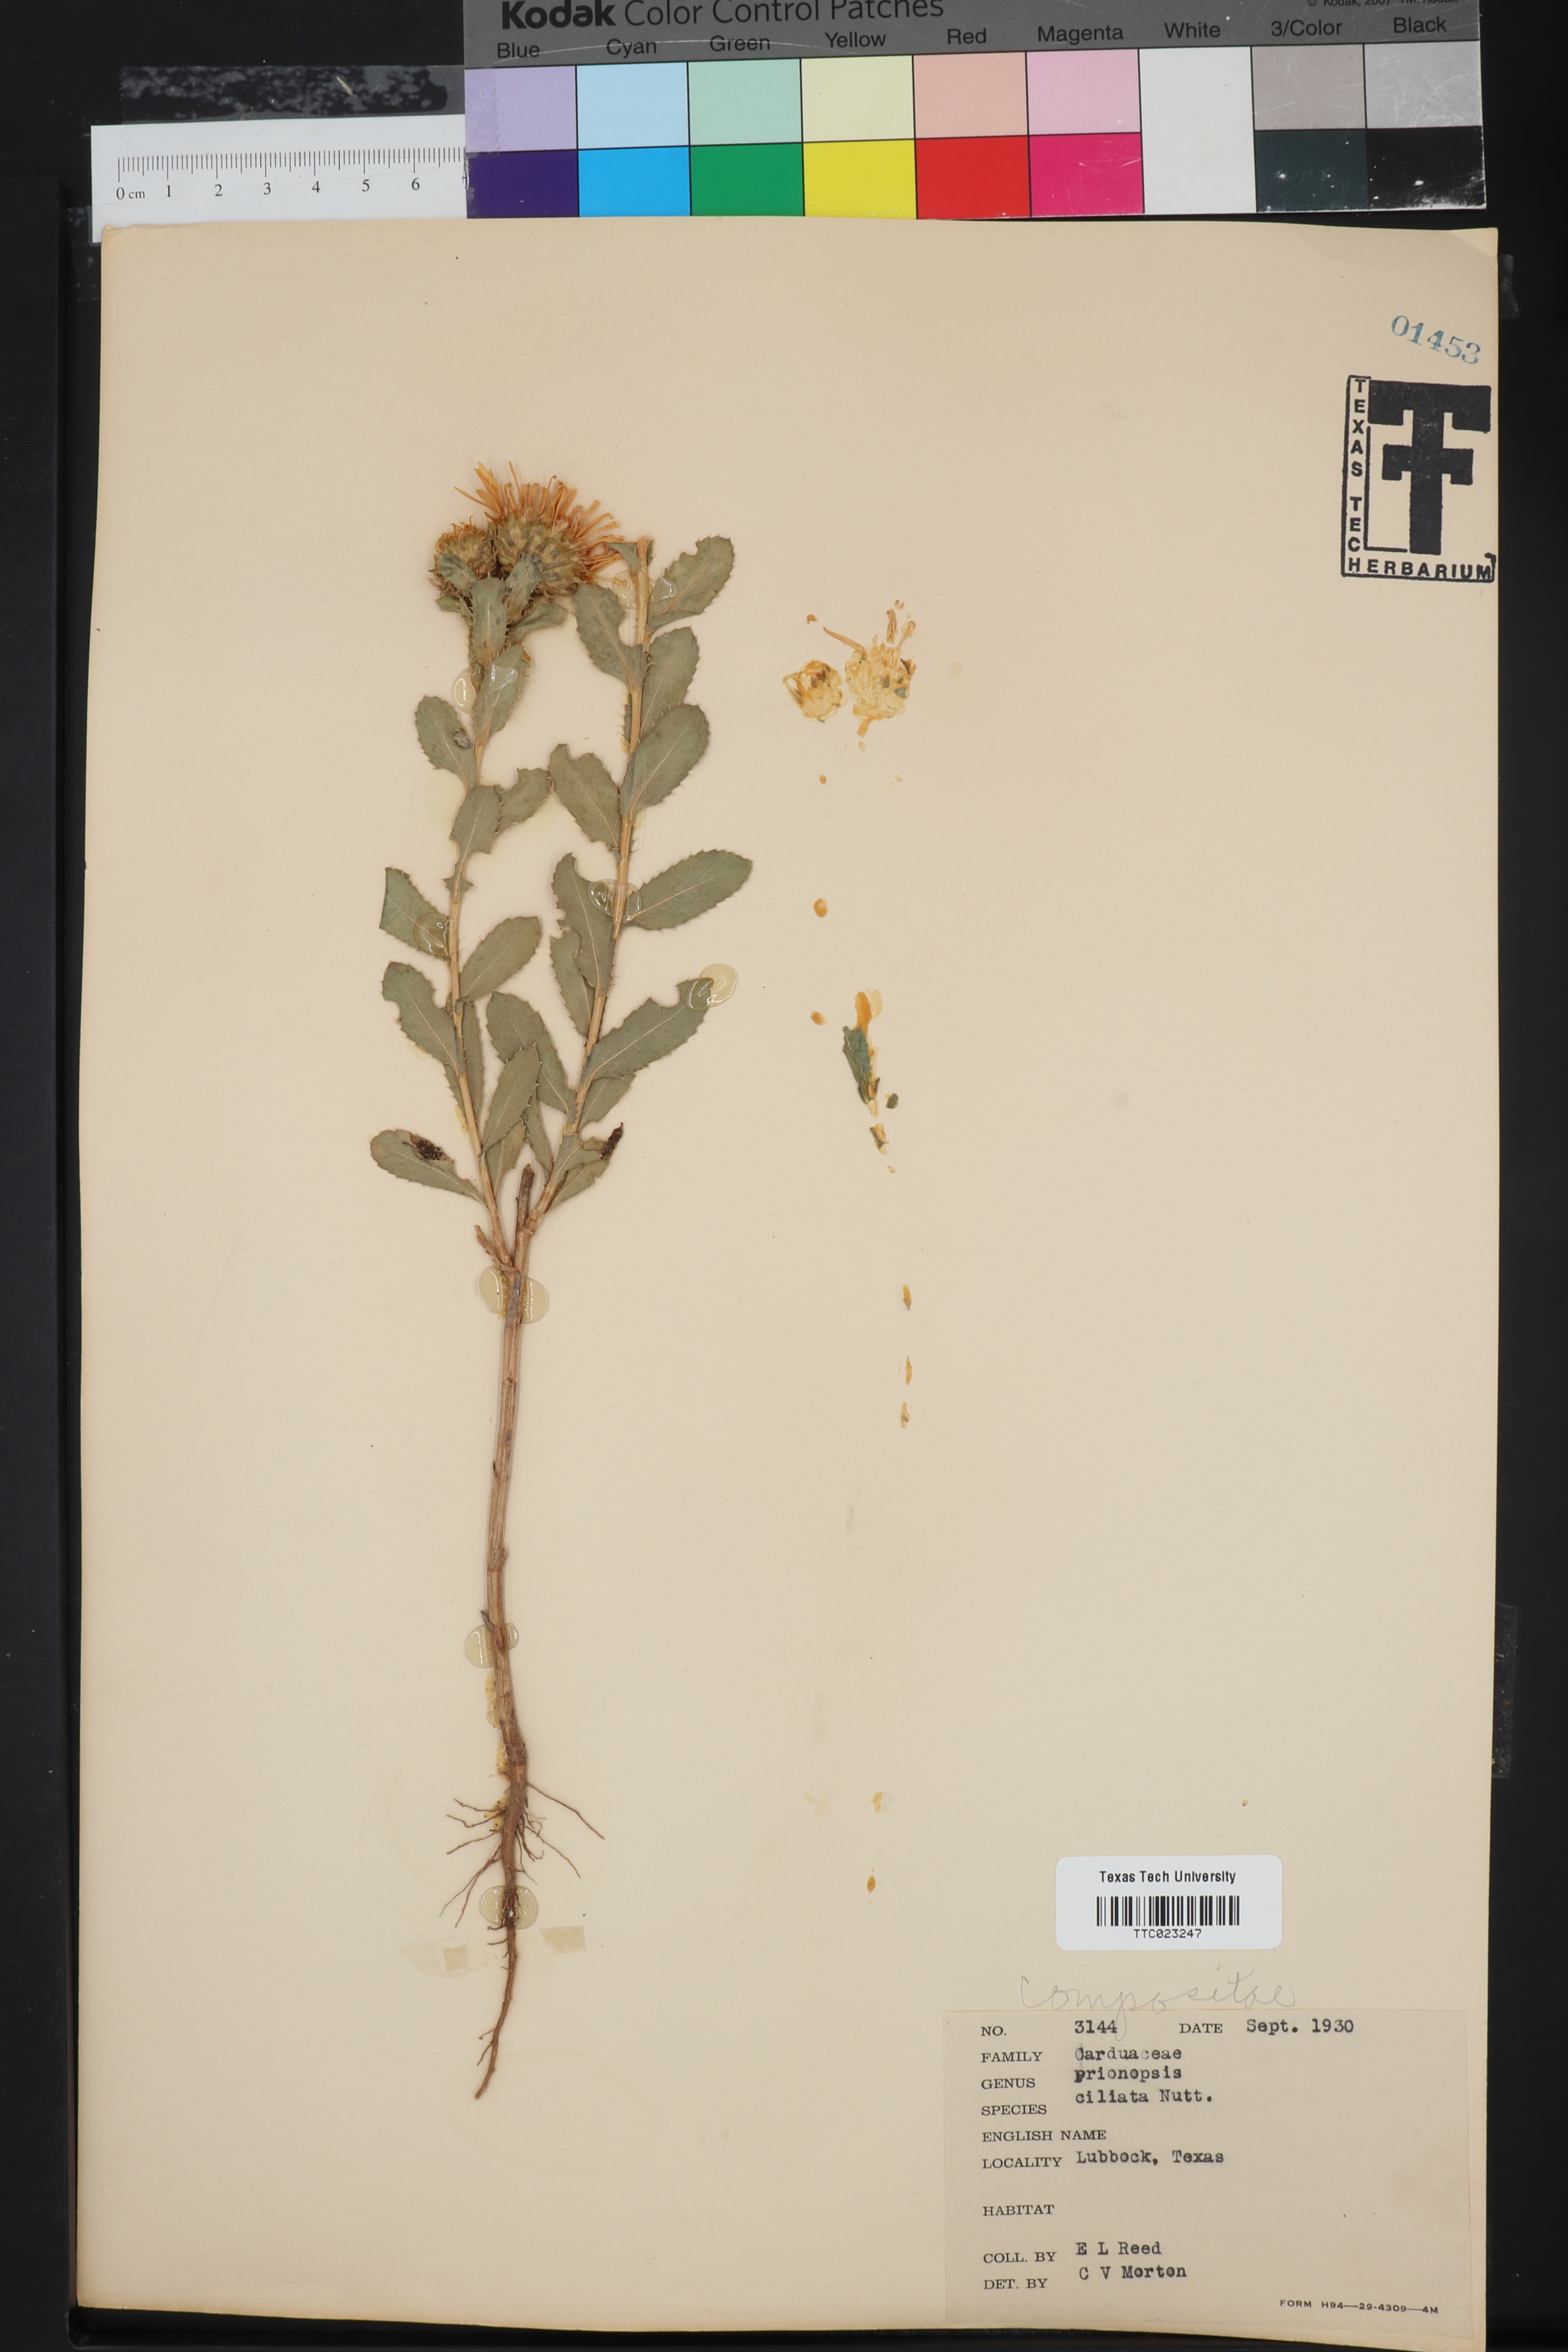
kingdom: Plantae
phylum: Tracheophyta
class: Magnoliopsida
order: Asterales
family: Asteraceae
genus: Grindelia
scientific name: Grindelia ciliata
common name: Goldenweed
